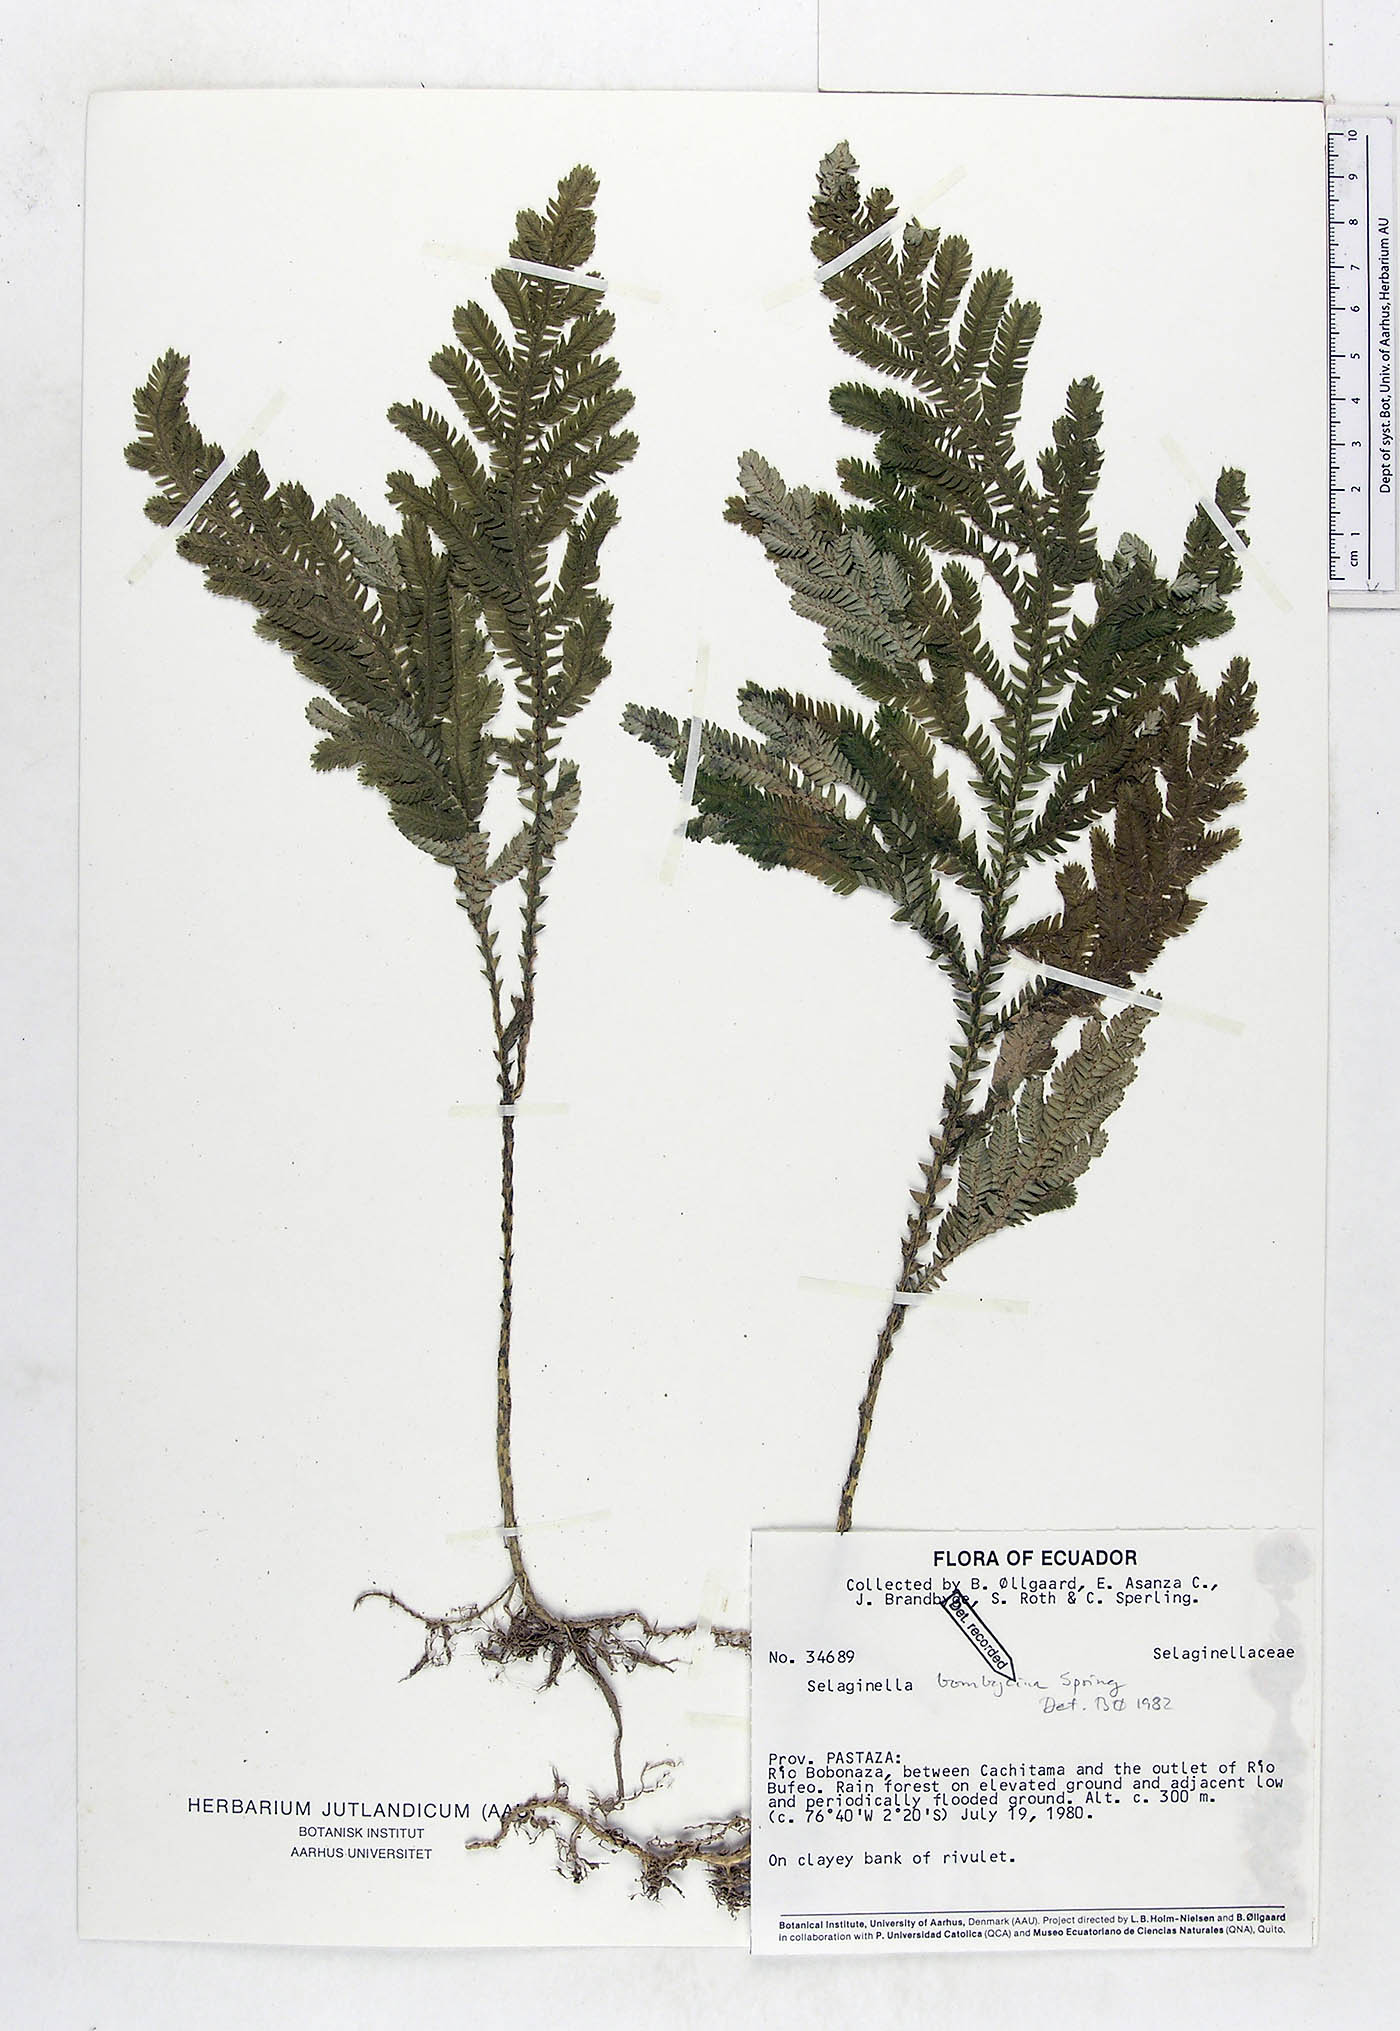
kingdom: Plantae
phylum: Tracheophyta
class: Lycopodiopsida
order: Selaginellales
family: Selaginellaceae
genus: Selaginella
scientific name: Selaginella bombycina
